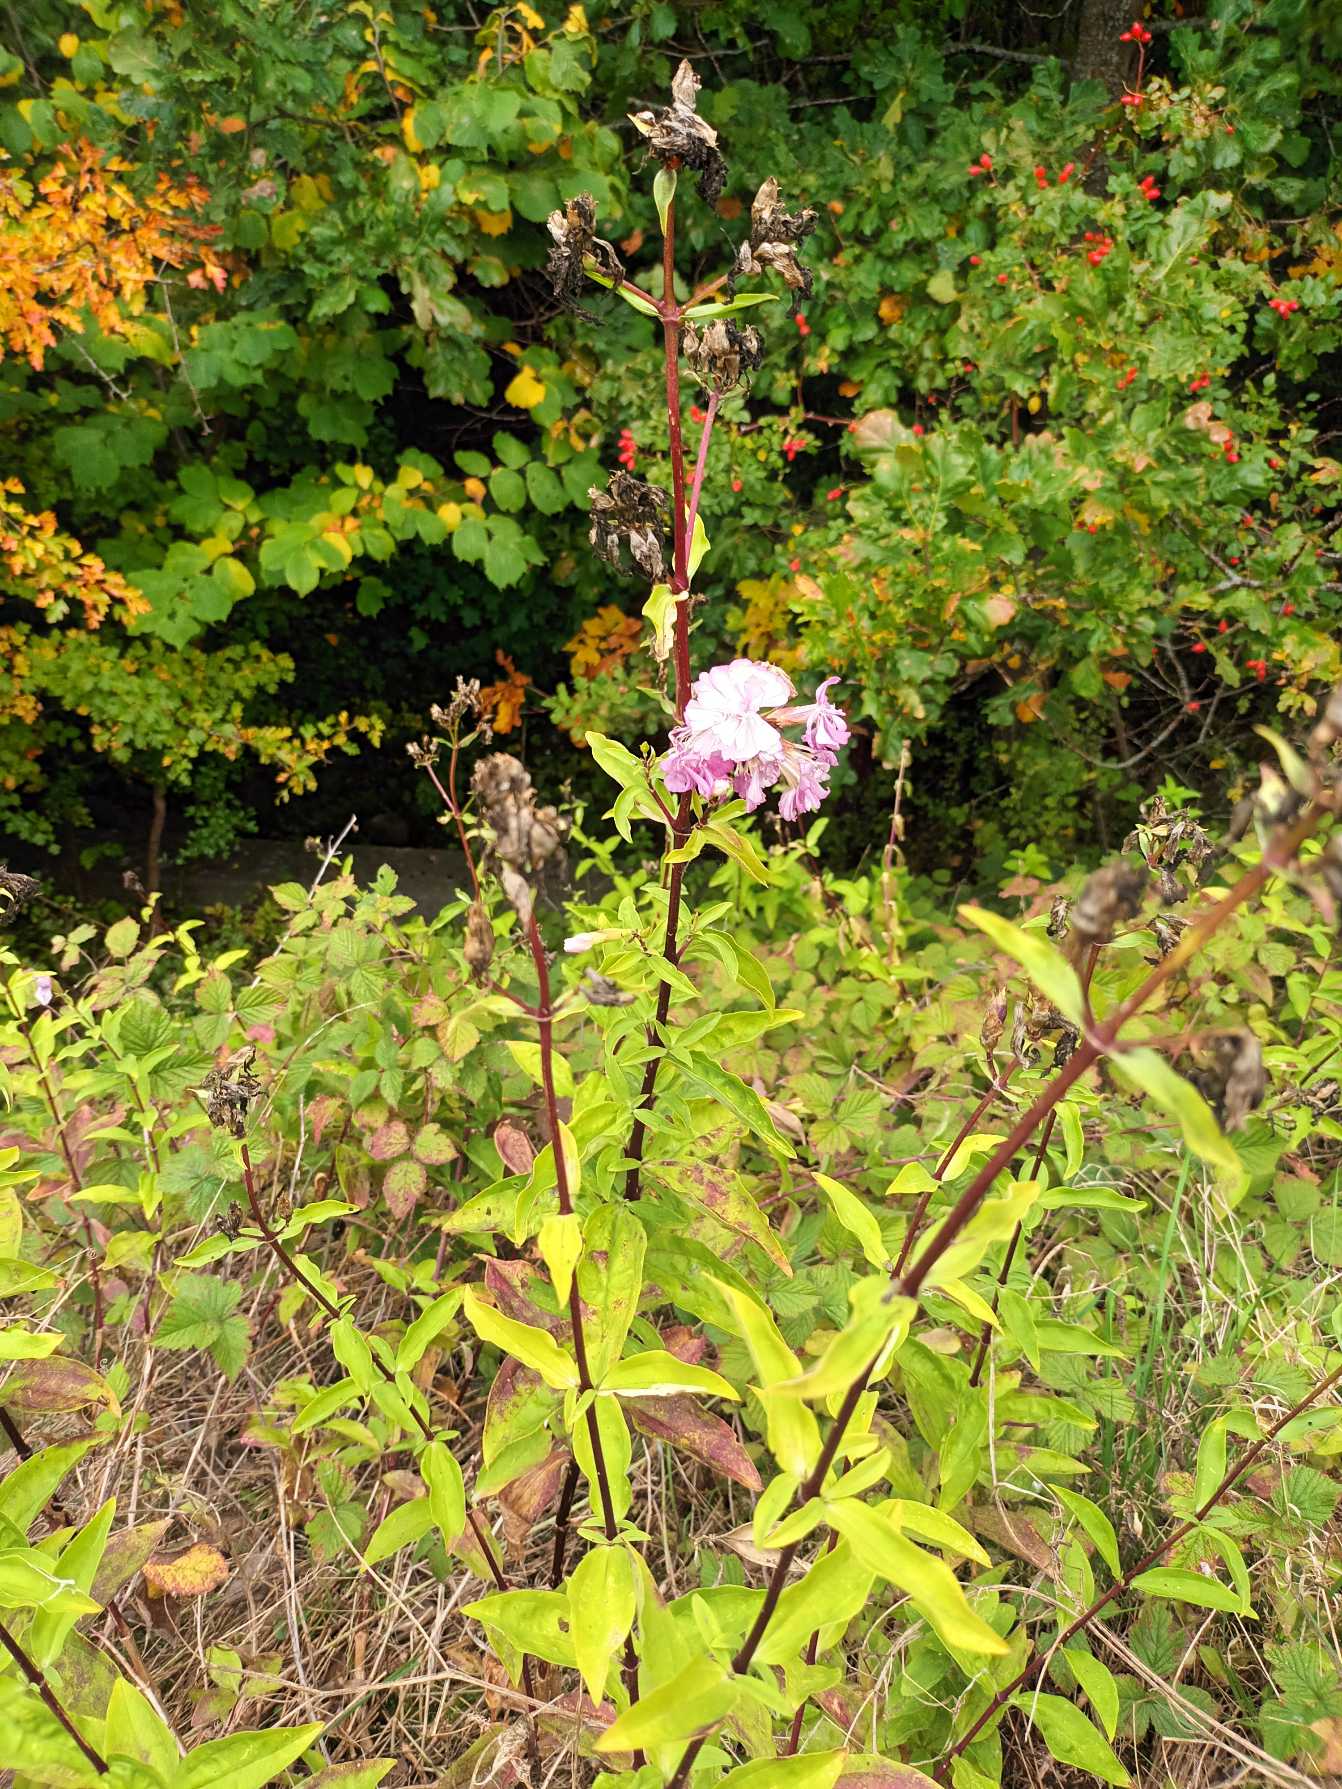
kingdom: Plantae
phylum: Tracheophyta
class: Magnoliopsida
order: Caryophyllales
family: Caryophyllaceae
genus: Saponaria
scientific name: Saponaria officinalis
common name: Sæbeurt
